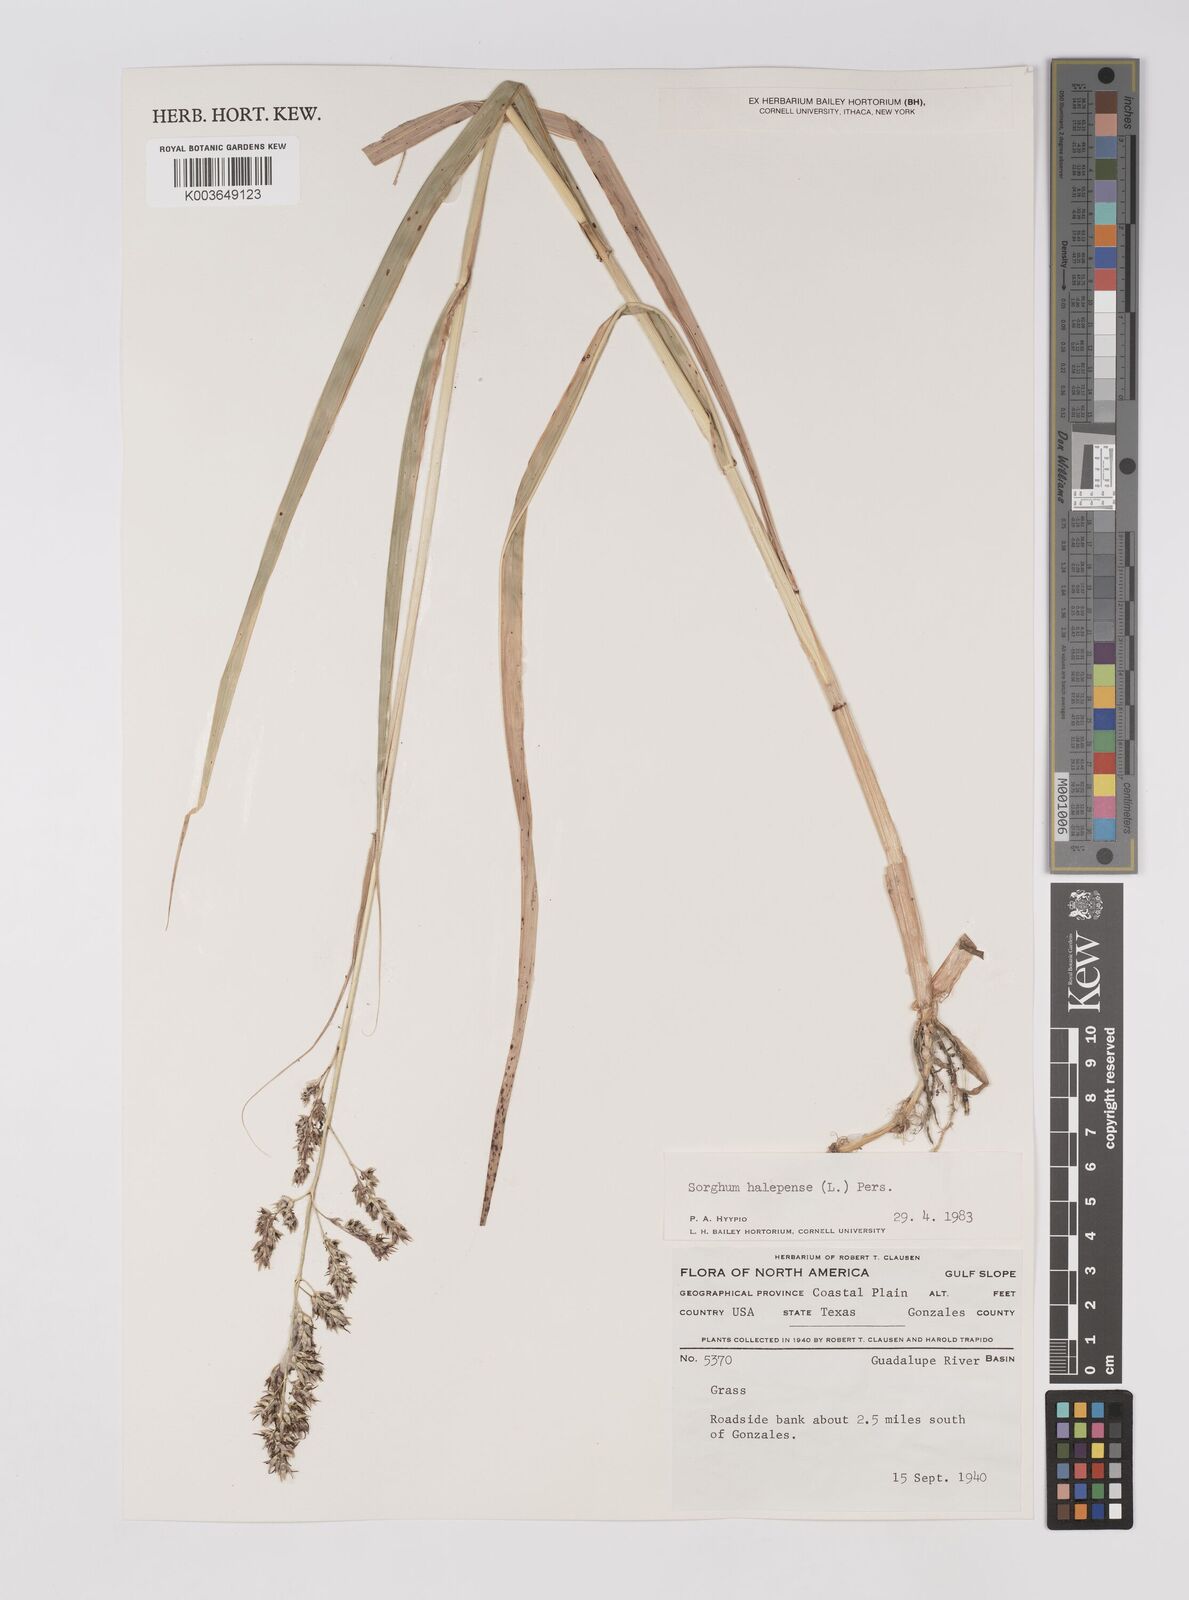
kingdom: Plantae
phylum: Tracheophyta
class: Liliopsida
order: Poales
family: Poaceae
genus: Sorghum
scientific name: Sorghum halepense
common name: Johnson-grass
